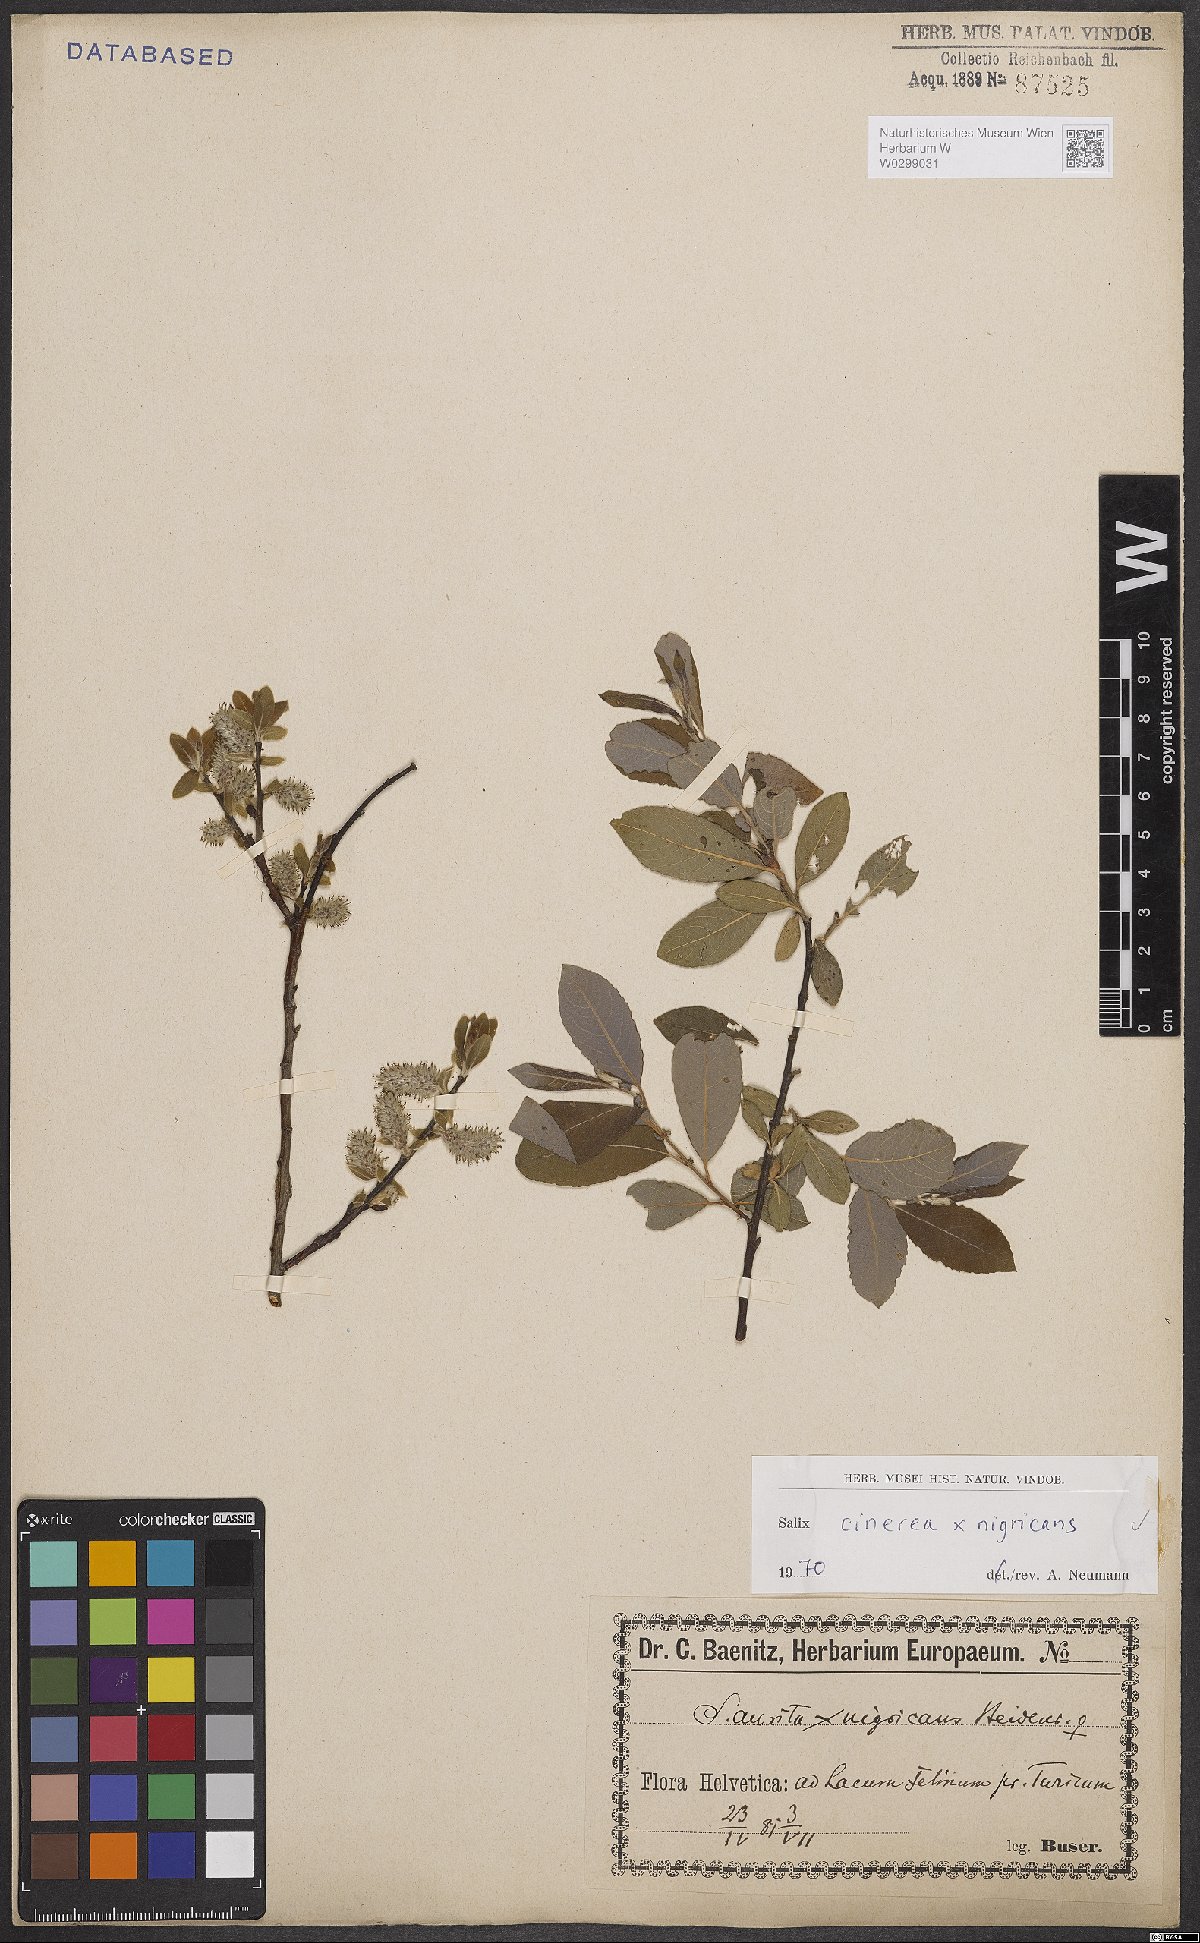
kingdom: Plantae
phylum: Tracheophyta
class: Magnoliopsida
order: Malpighiales
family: Salicaceae
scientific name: Salicaceae
